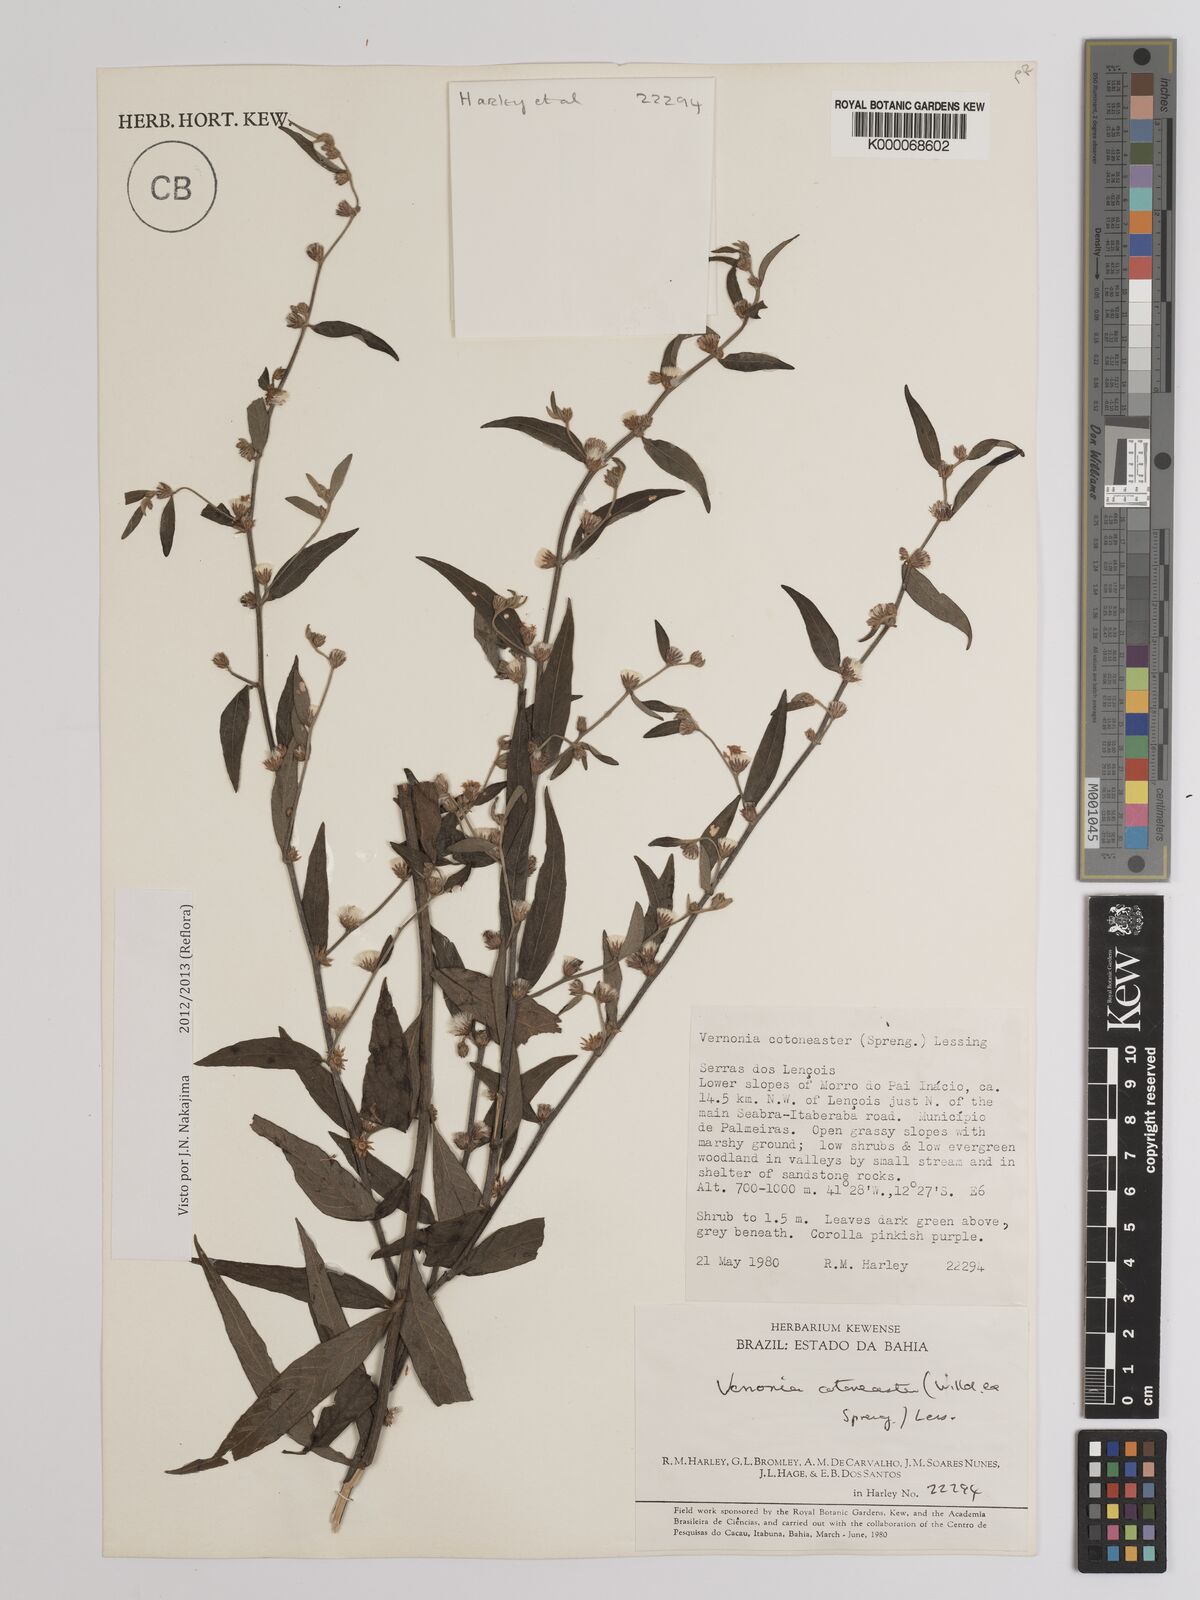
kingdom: Plantae
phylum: Tracheophyta
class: Magnoliopsida
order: Asterales
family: Asteraceae
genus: Lepidaploa
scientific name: Lepidaploa cotoneaster
